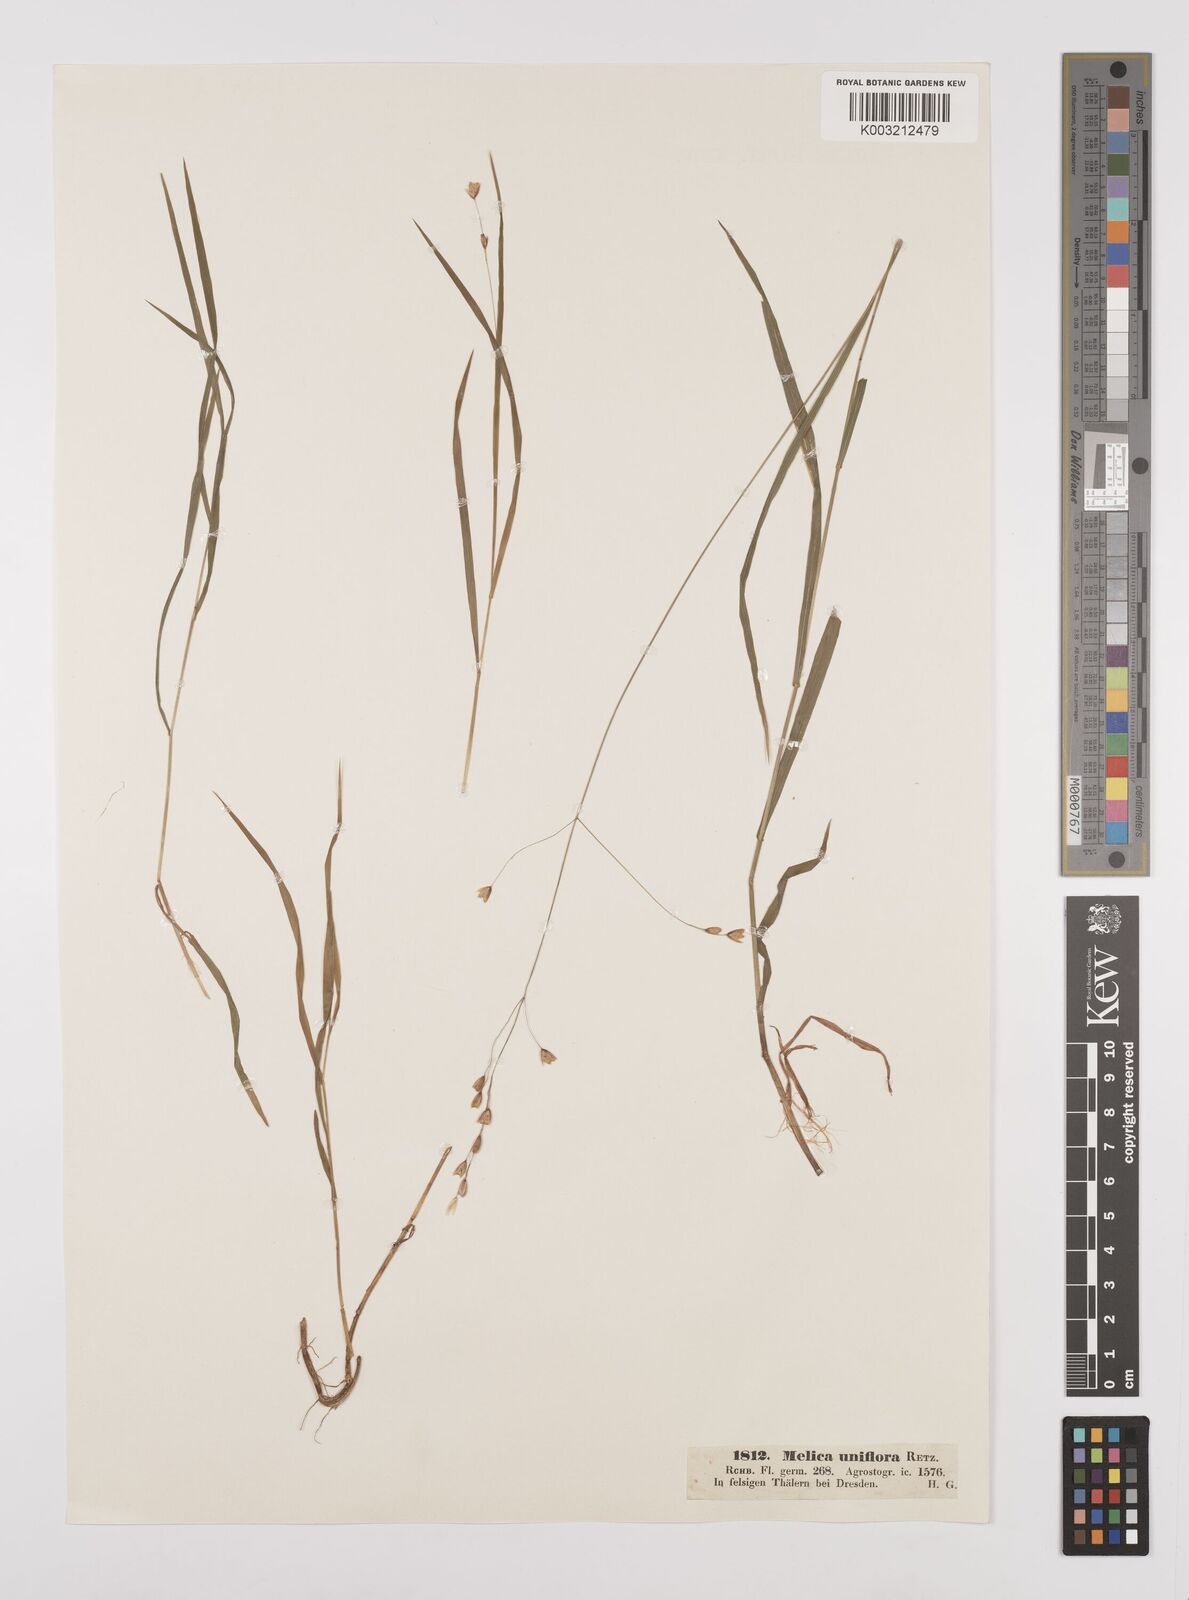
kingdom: Plantae
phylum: Tracheophyta
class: Liliopsida
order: Poales
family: Poaceae
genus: Melica
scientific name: Melica uniflora
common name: Wood melick
